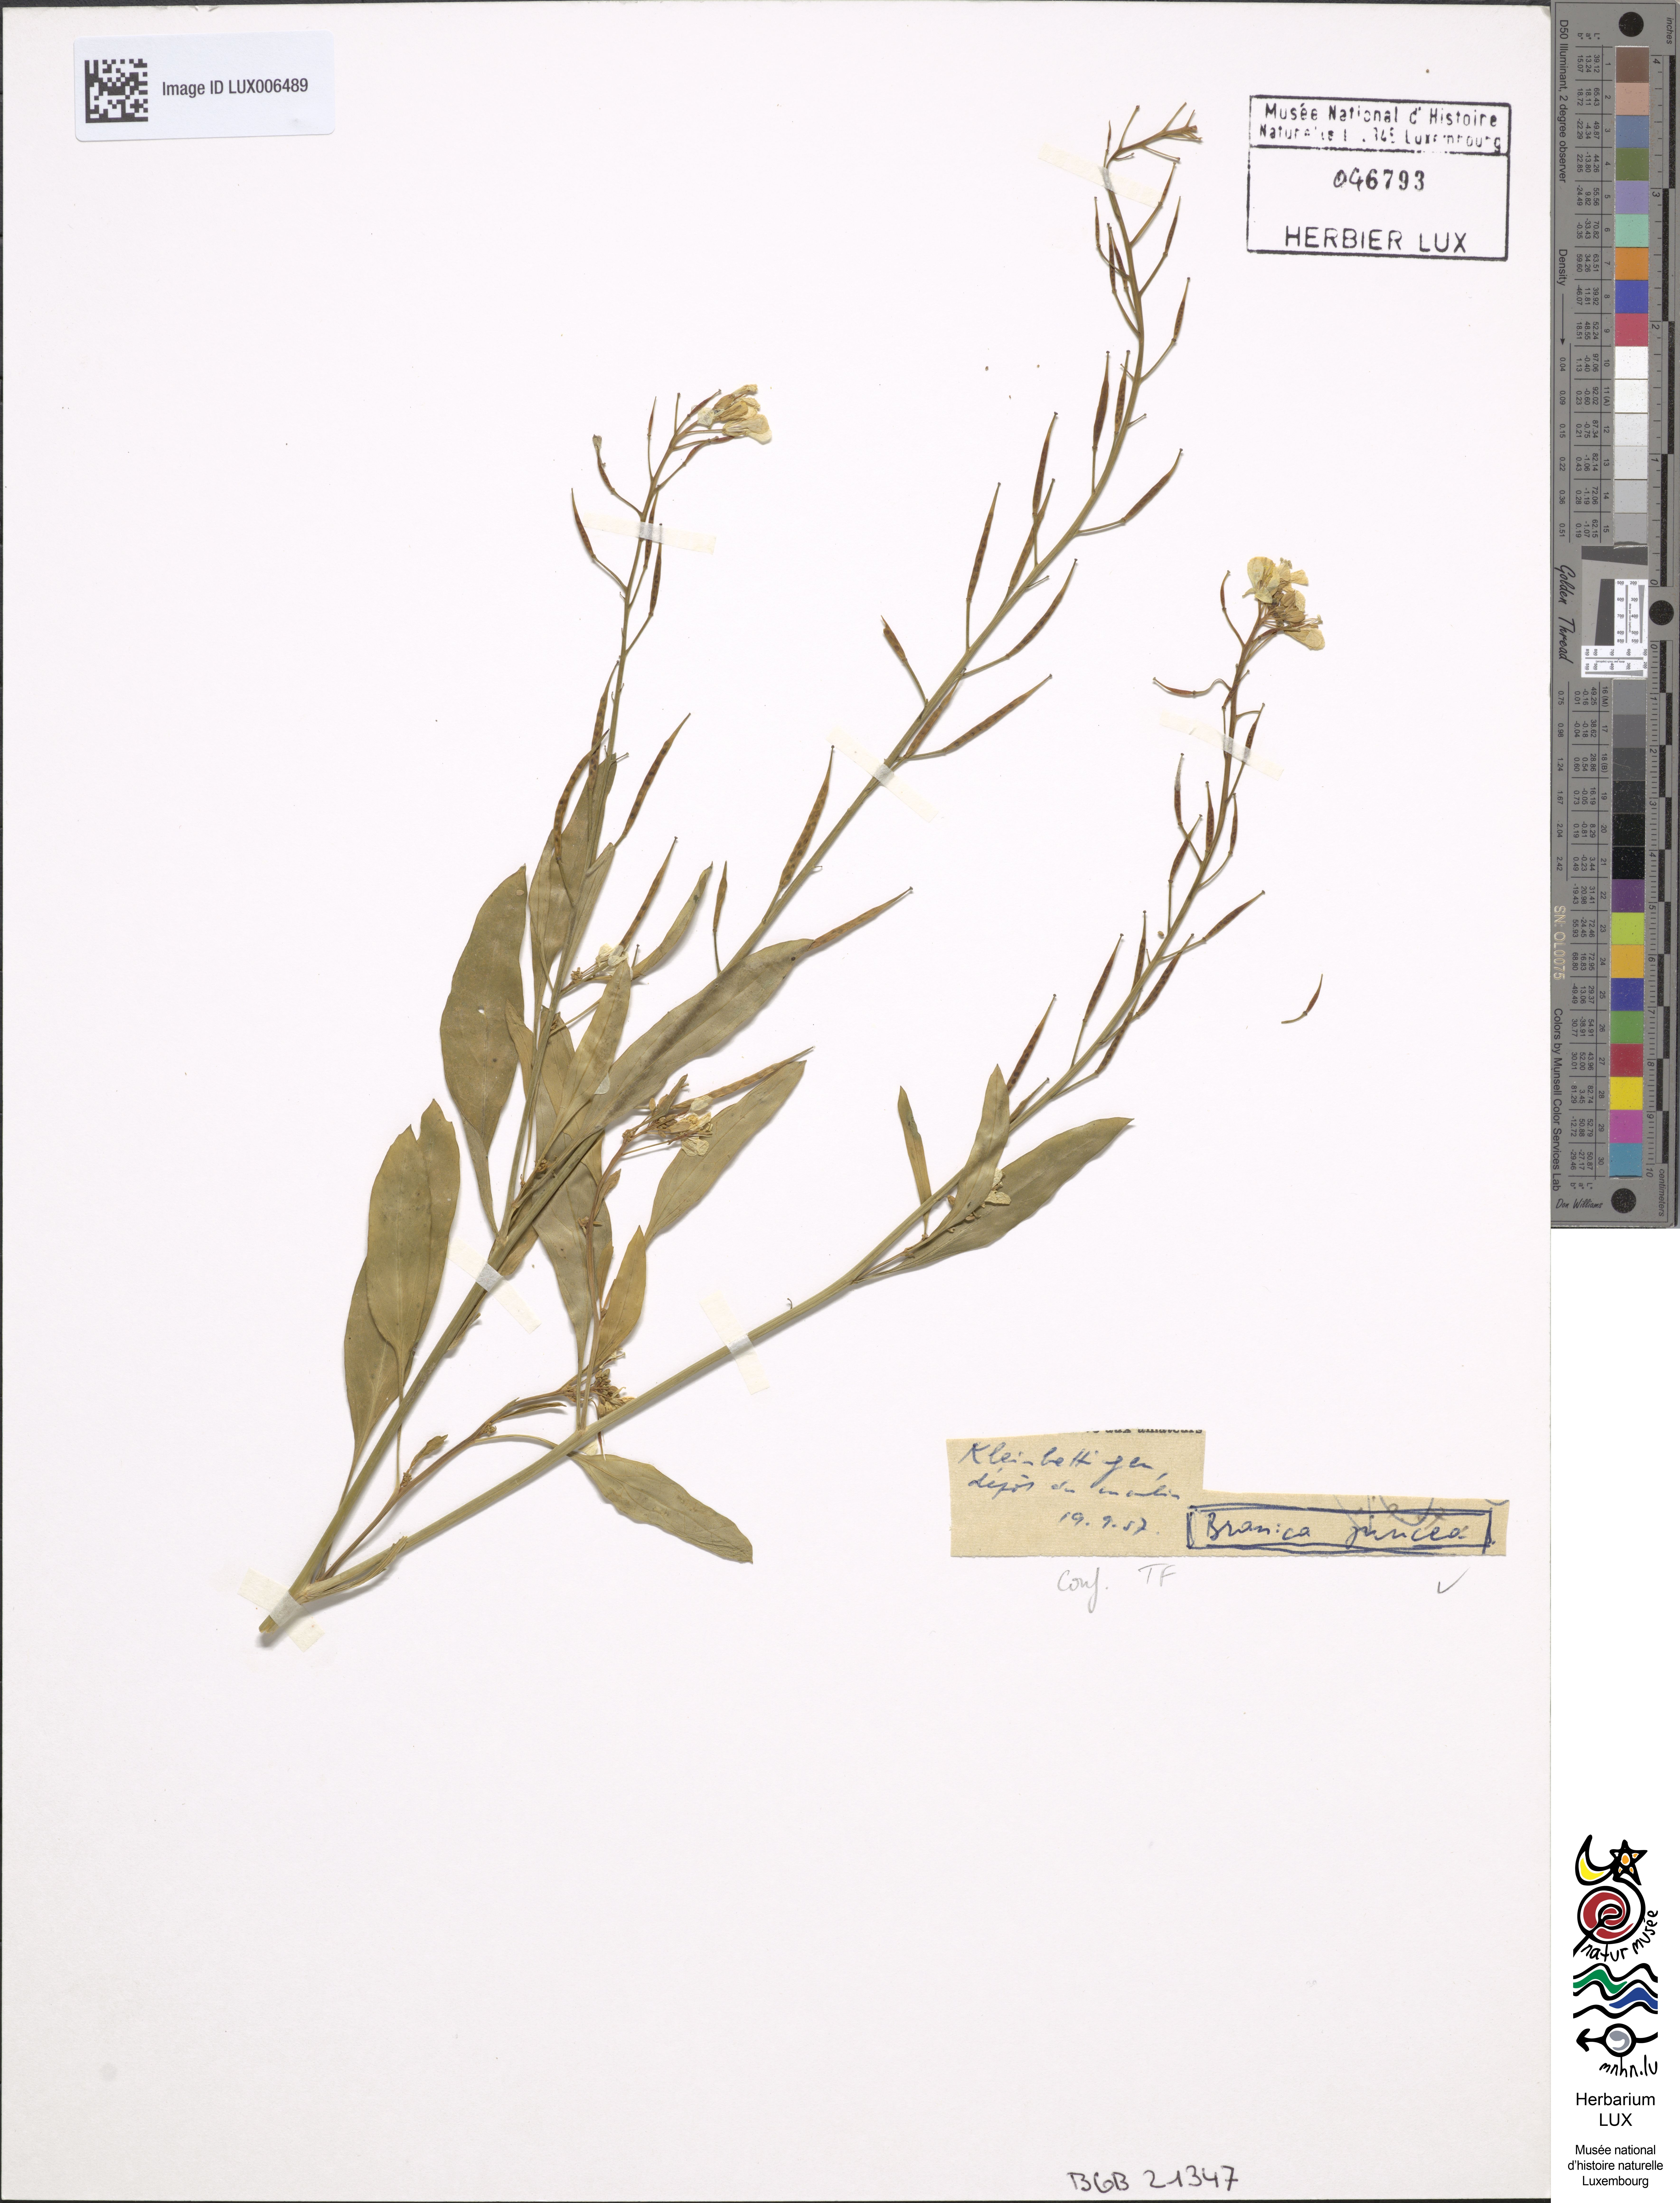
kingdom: Plantae
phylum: Tracheophyta
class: Magnoliopsida
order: Brassicales
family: Brassicaceae
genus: Brassica
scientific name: Brassica juncea
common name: Brown mustard
